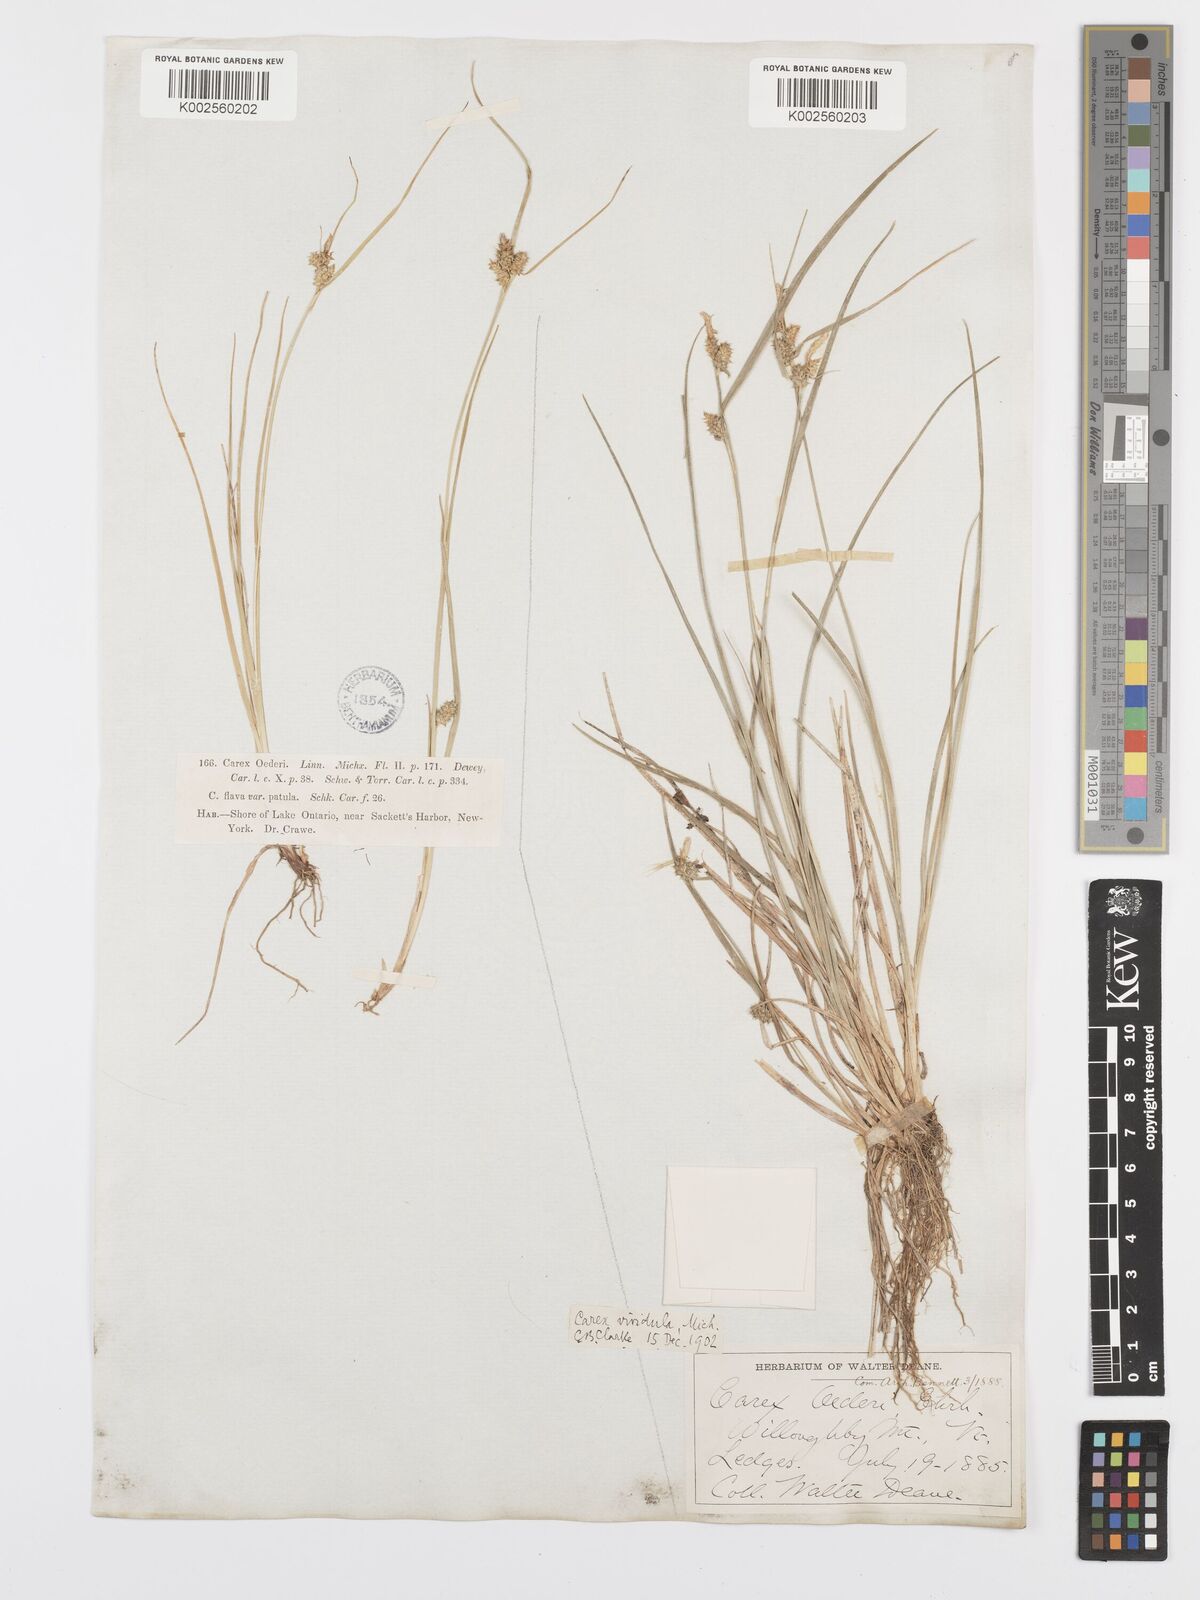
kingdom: Plantae
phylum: Tracheophyta
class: Liliopsida
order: Poales
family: Cyperaceae
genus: Carex
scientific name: Carex oederi
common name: Common & small-fruited yellow-sedge
